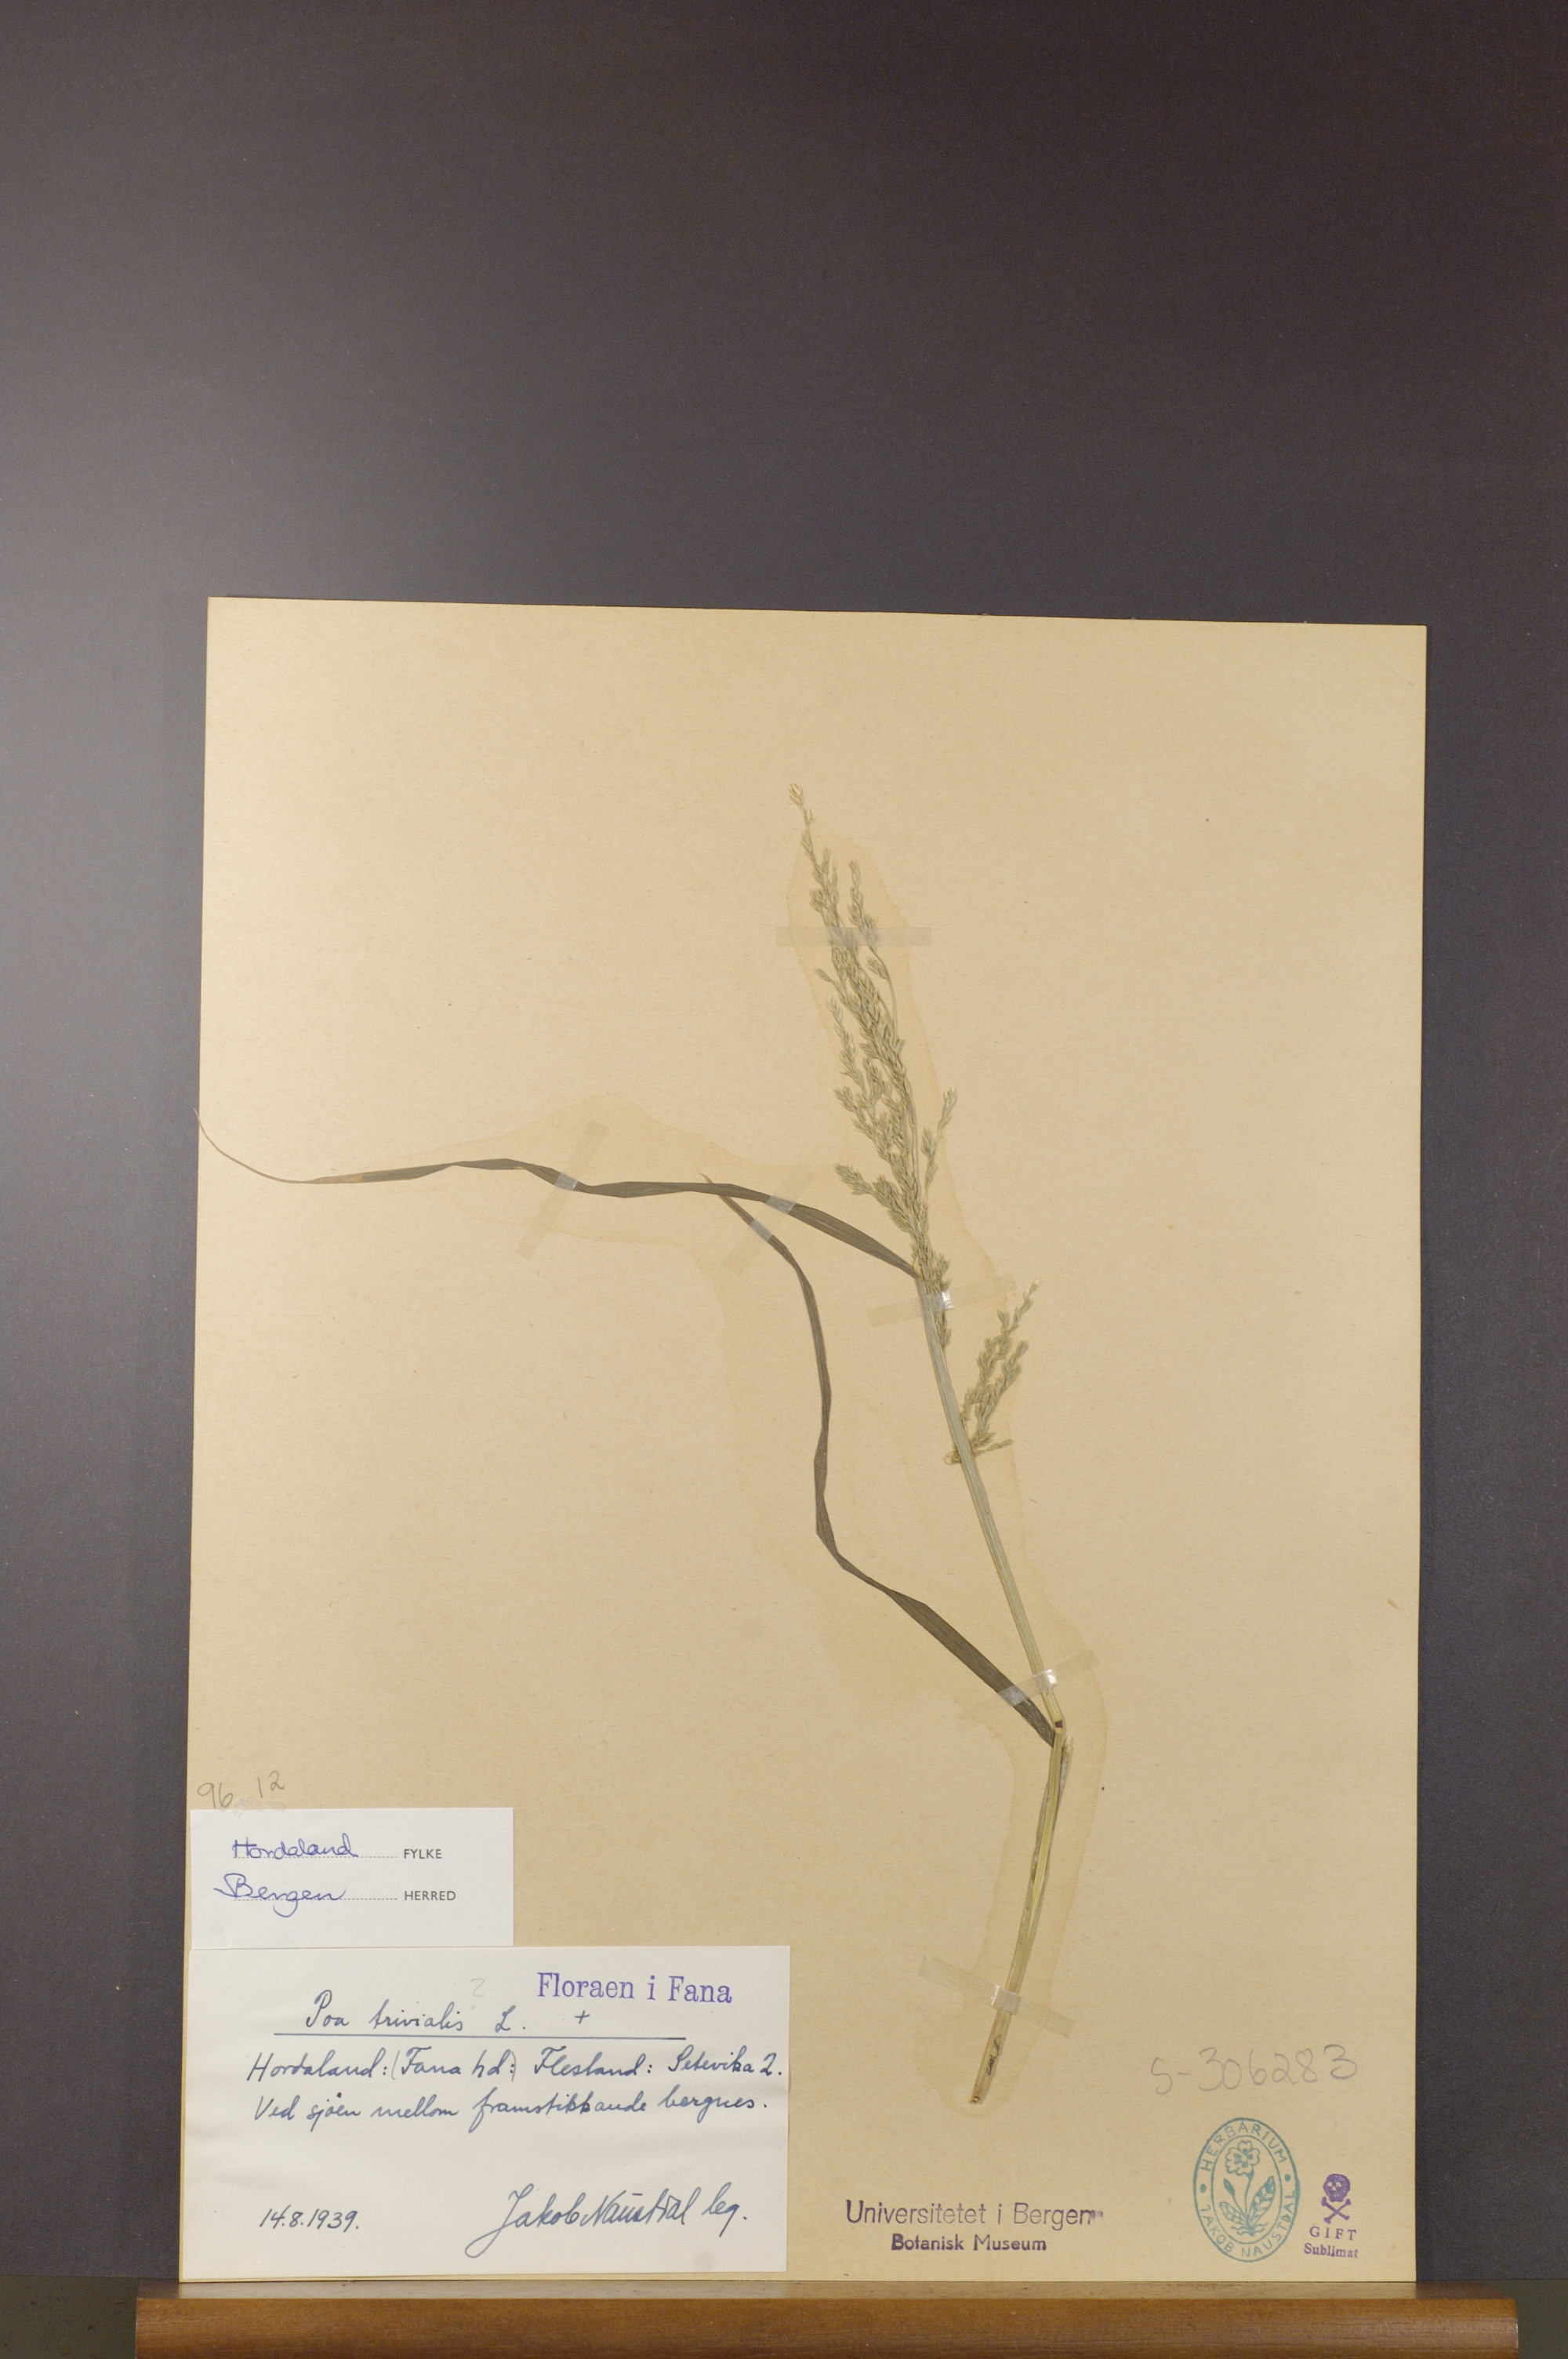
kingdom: Plantae
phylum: Tracheophyta
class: Liliopsida
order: Poales
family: Poaceae
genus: Poa
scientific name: Poa trivialis
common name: Rough bluegrass
